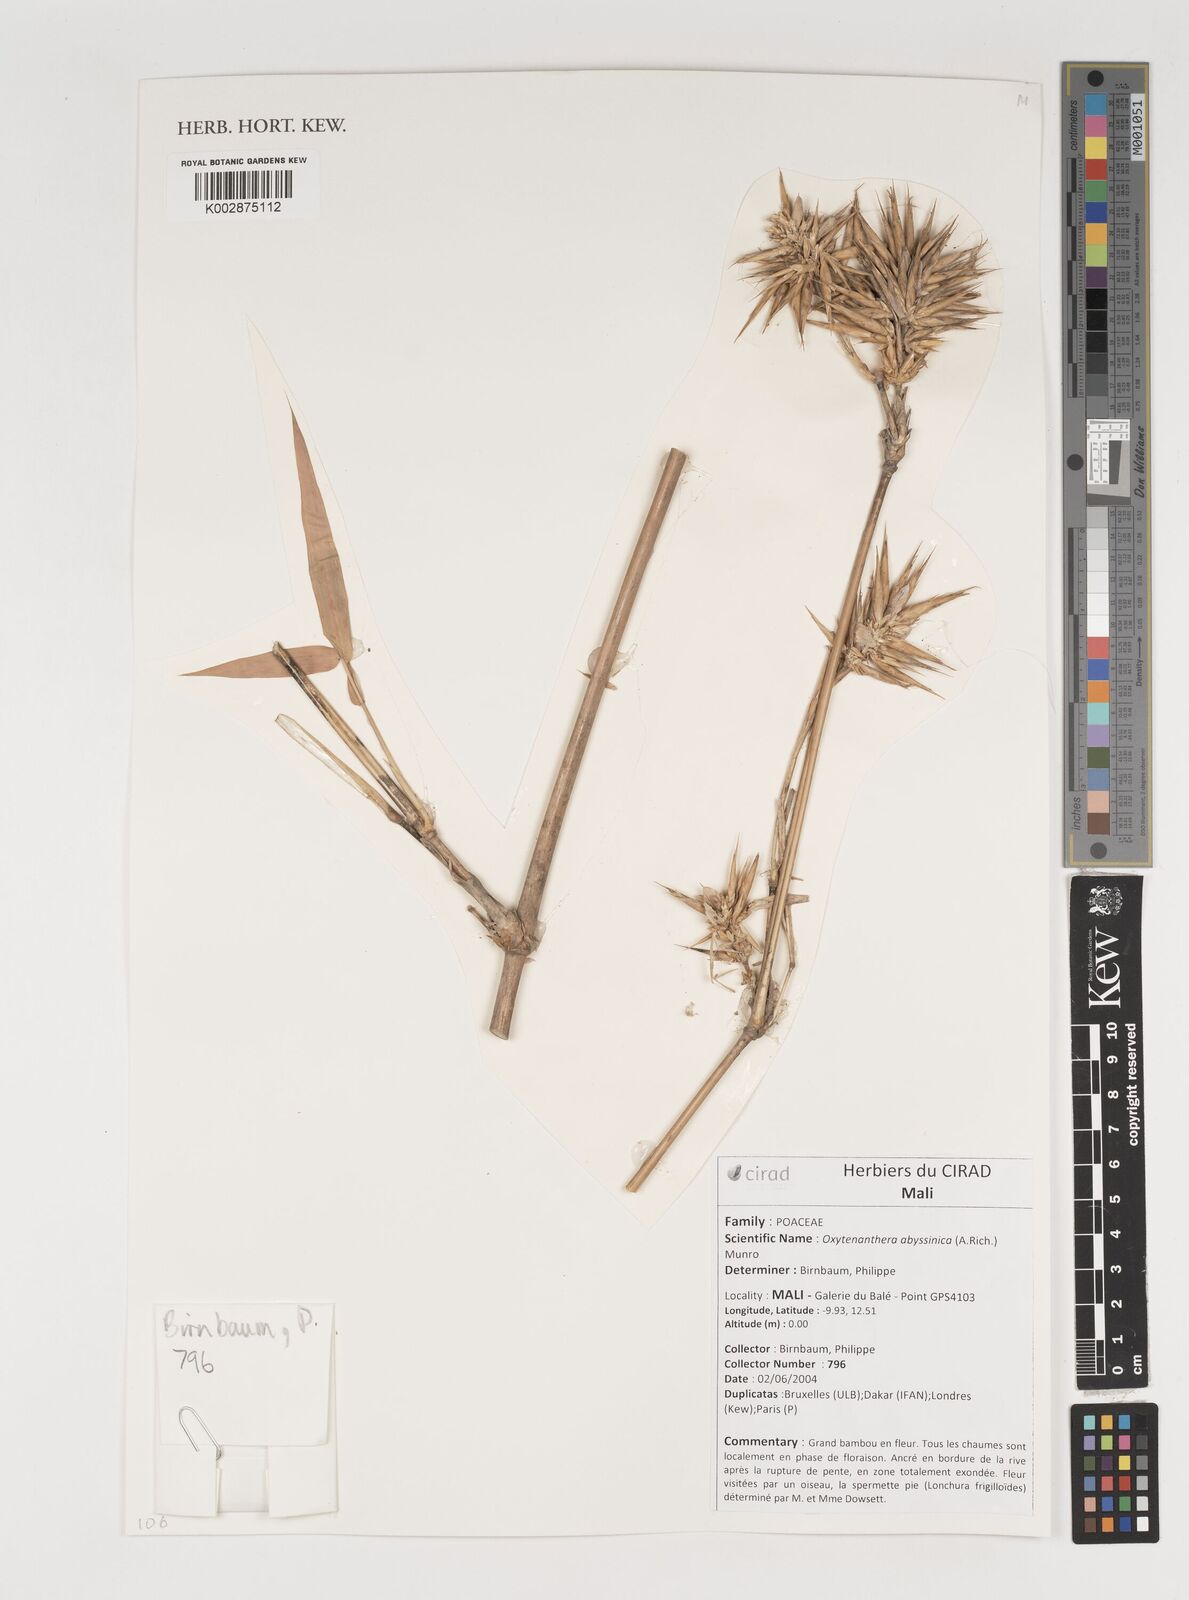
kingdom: Plantae
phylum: Tracheophyta
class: Liliopsida
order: Poales
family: Poaceae
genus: Oxytenanthera
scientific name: Oxytenanthera abyssinica
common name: Wine bamboo
